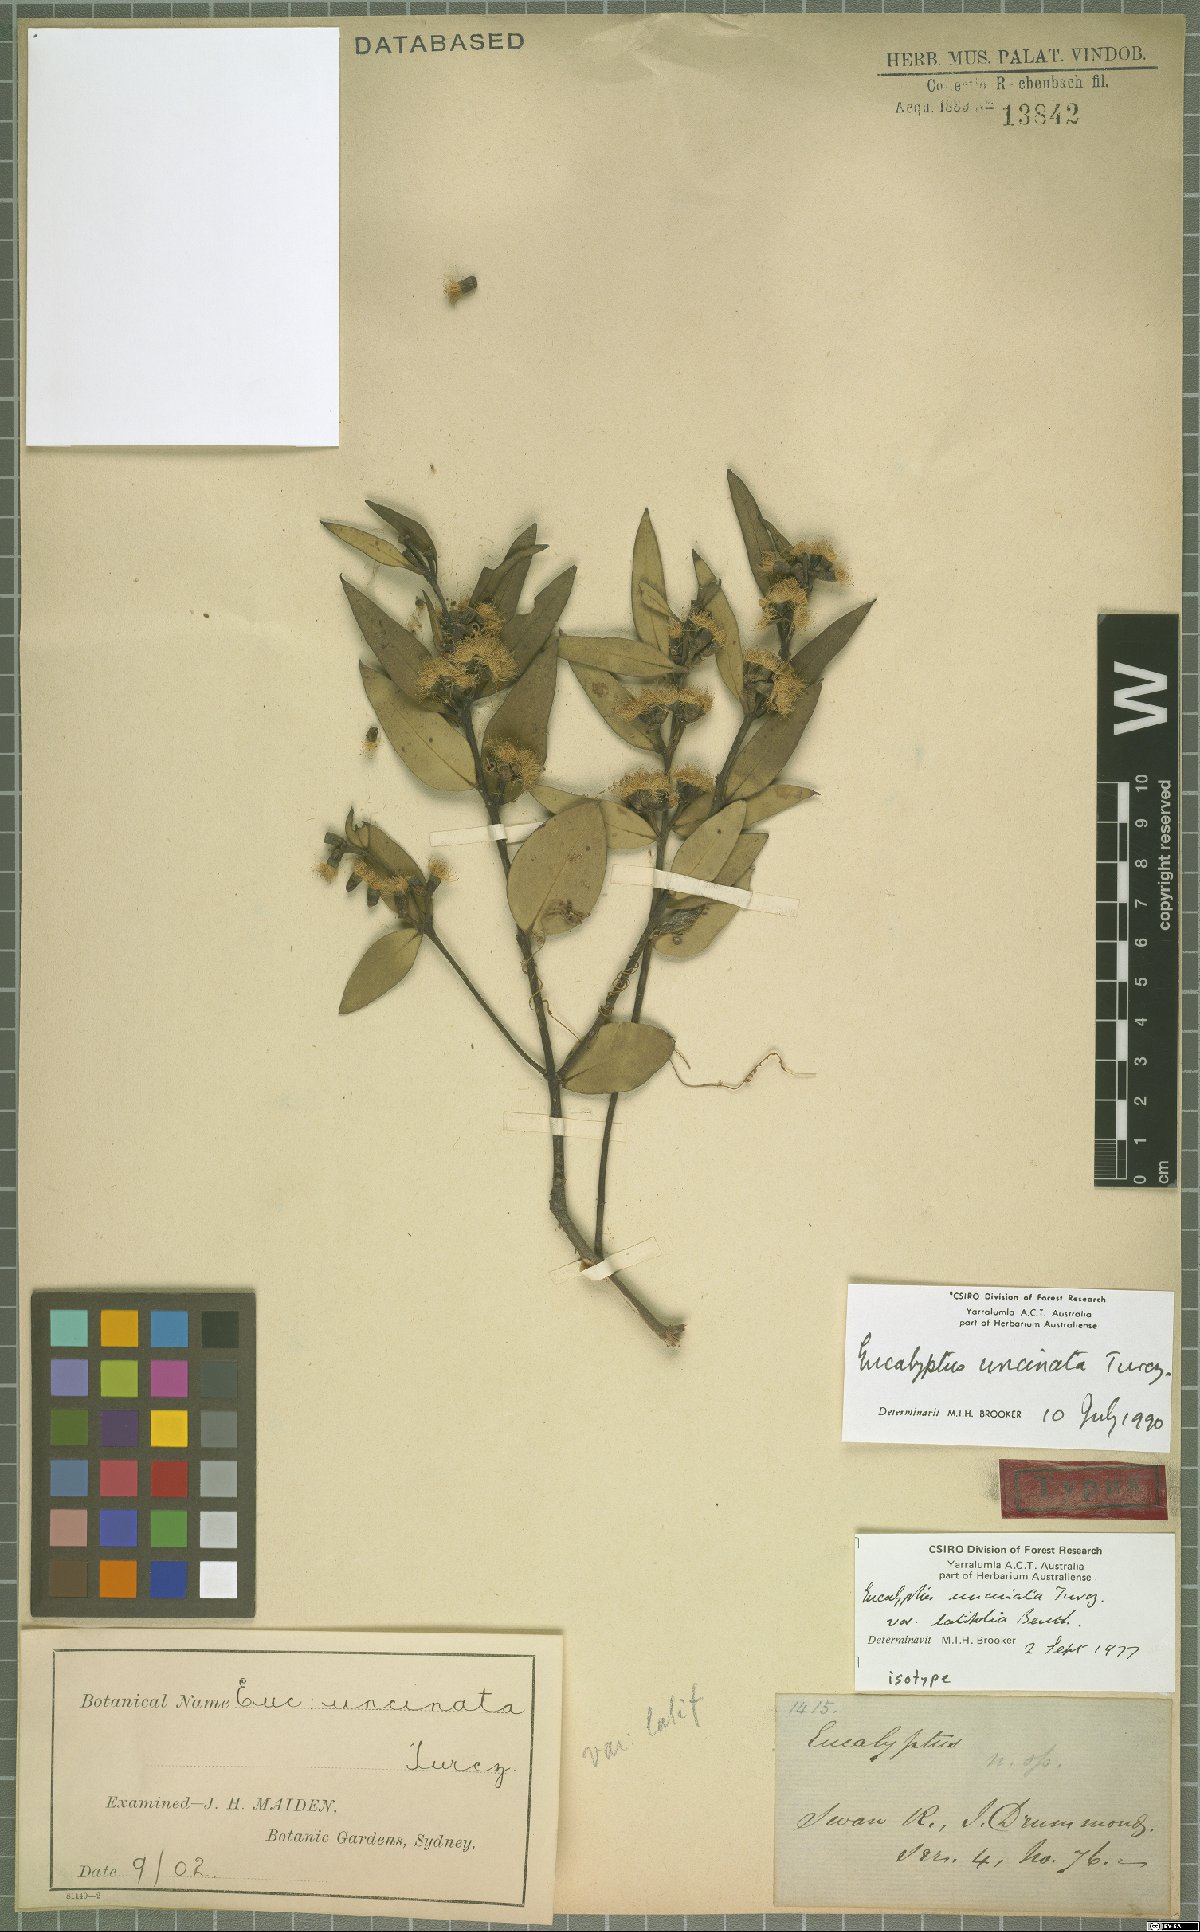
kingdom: Plantae
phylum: Tracheophyta
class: Magnoliopsida
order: Myrtales
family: Myrtaceae
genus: Eucalyptus
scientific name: Eucalyptus uncinata
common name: Hooked-leaved mallee
